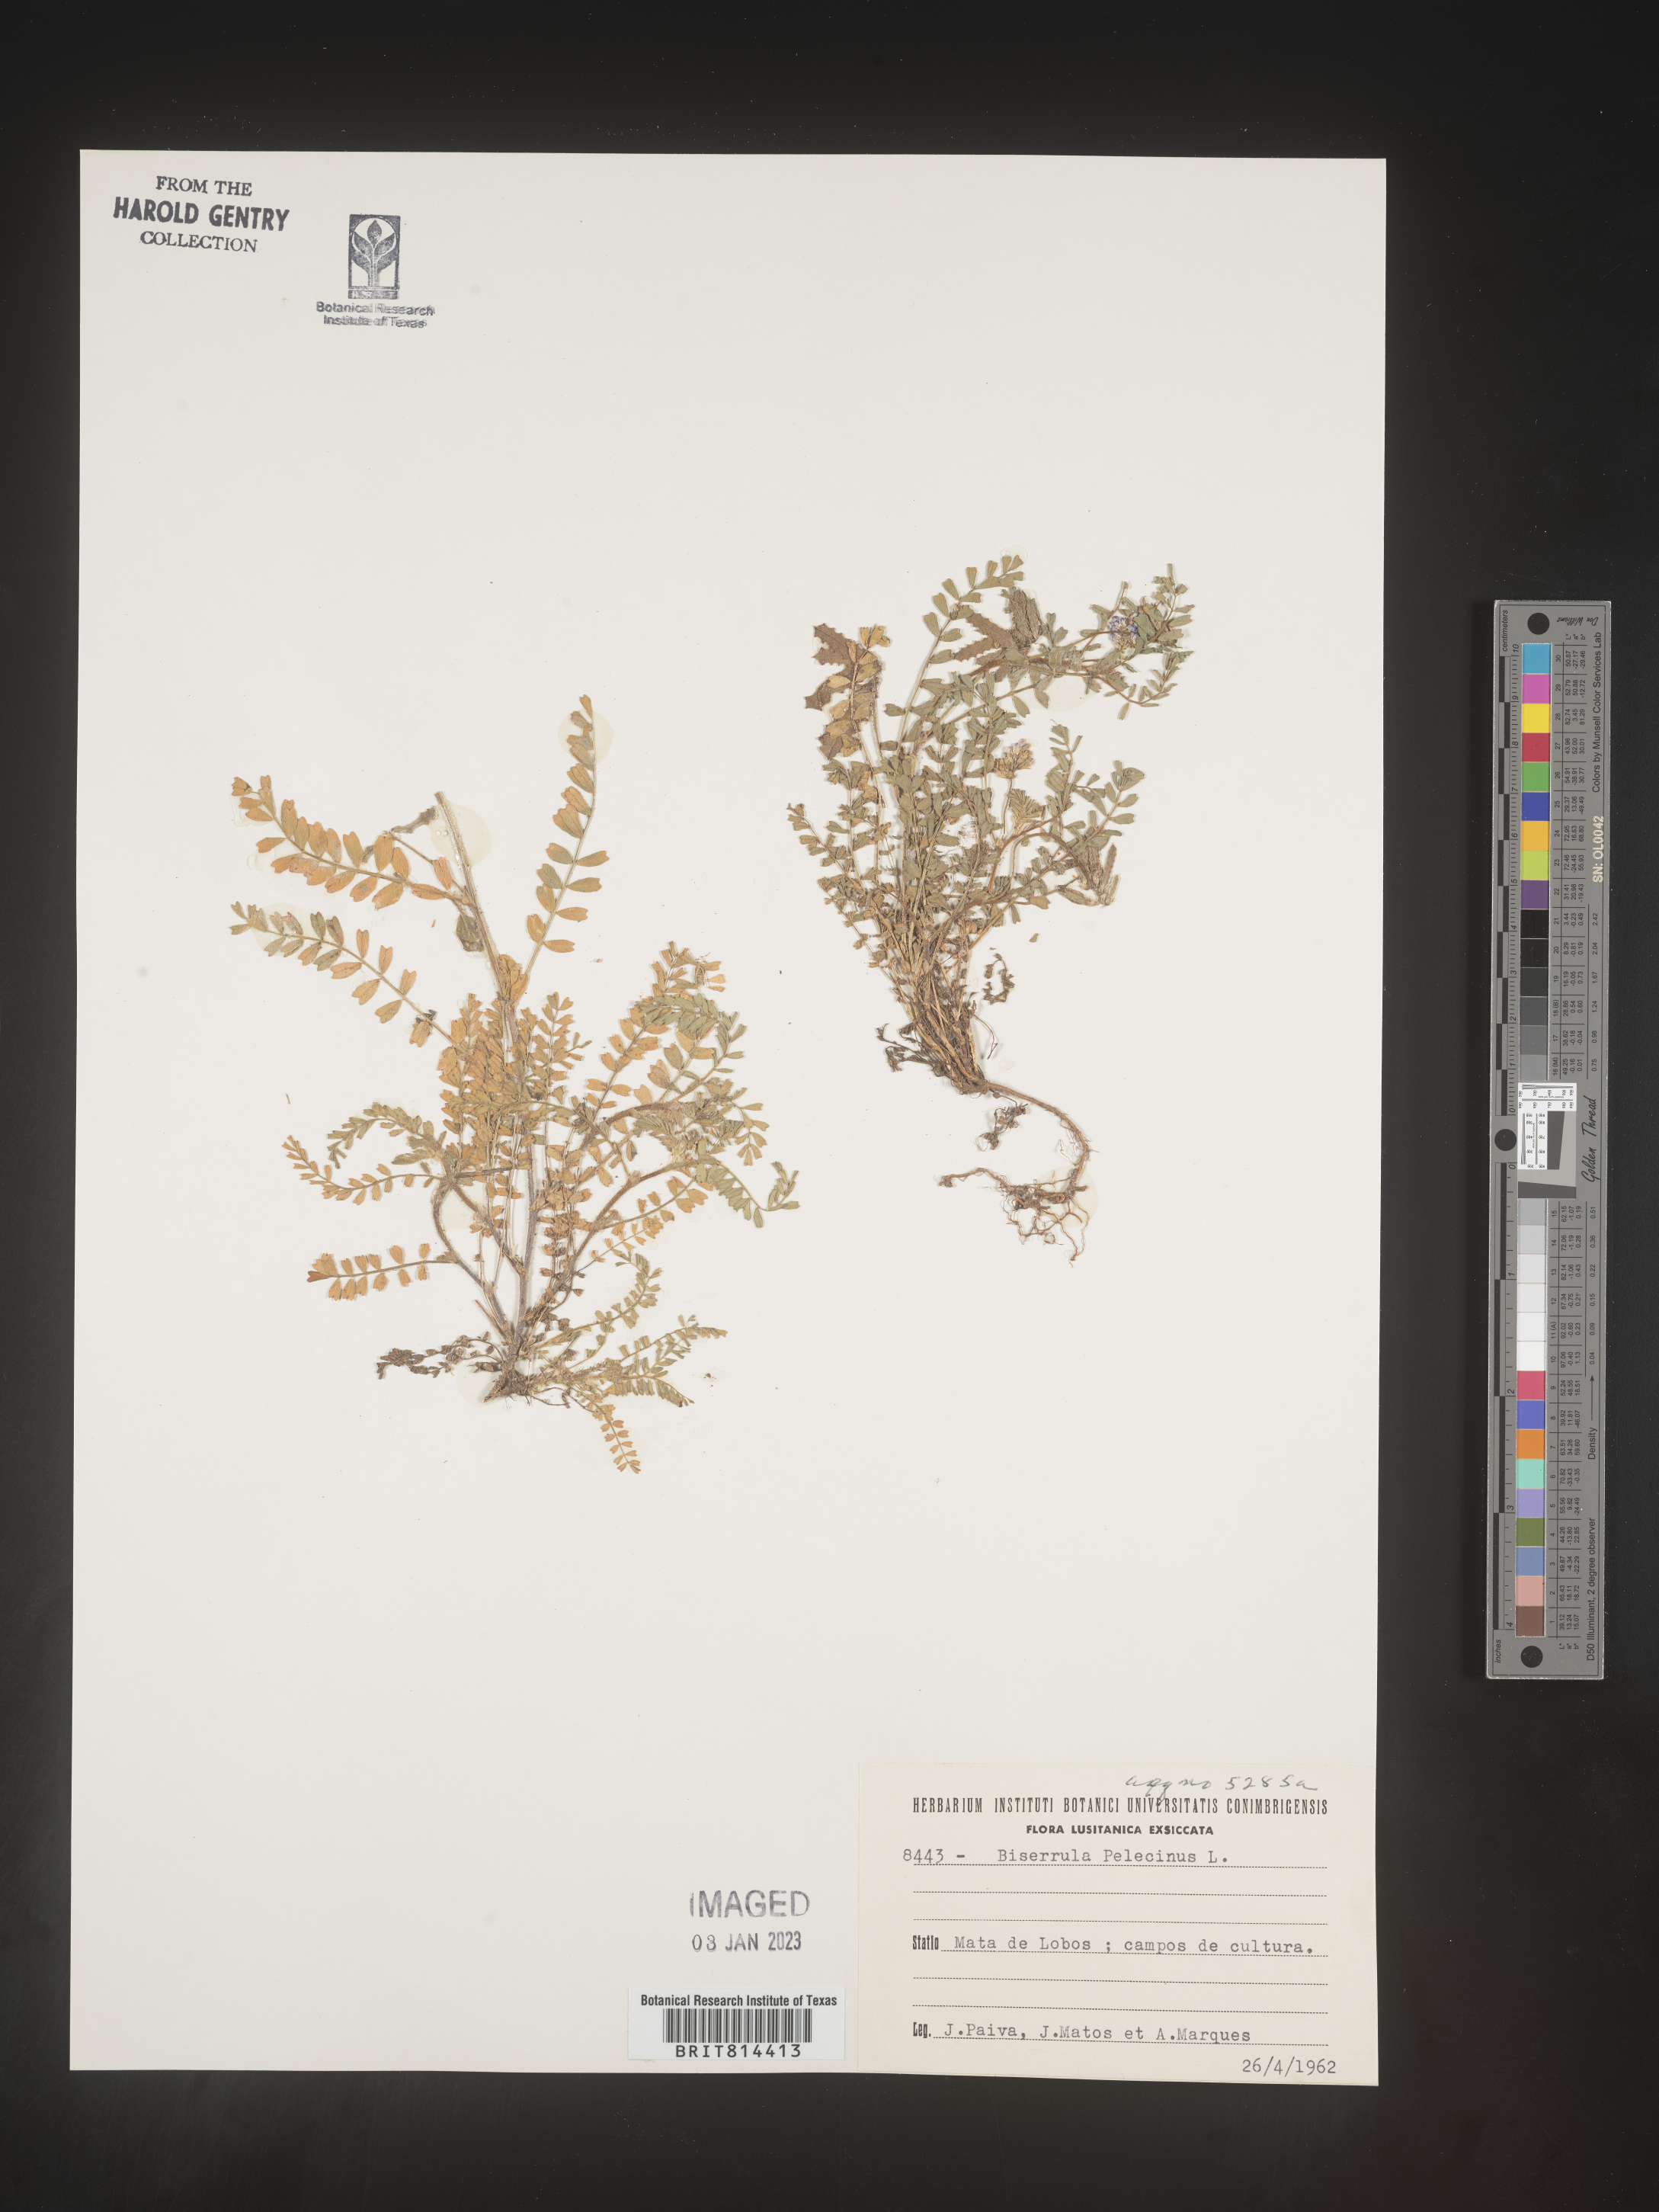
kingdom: Plantae
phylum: Tracheophyta
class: Magnoliopsida
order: Fabales
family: Fabaceae
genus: Biserrula
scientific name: Biserrula
